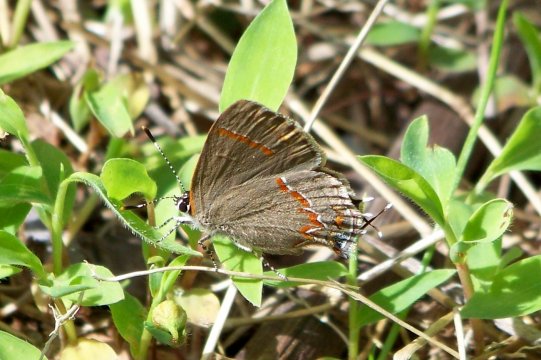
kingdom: Animalia
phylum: Arthropoda
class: Insecta
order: Lepidoptera
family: Lycaenidae
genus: Calycopis
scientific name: Calycopis cecrops
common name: Red-banded Hairstreak
